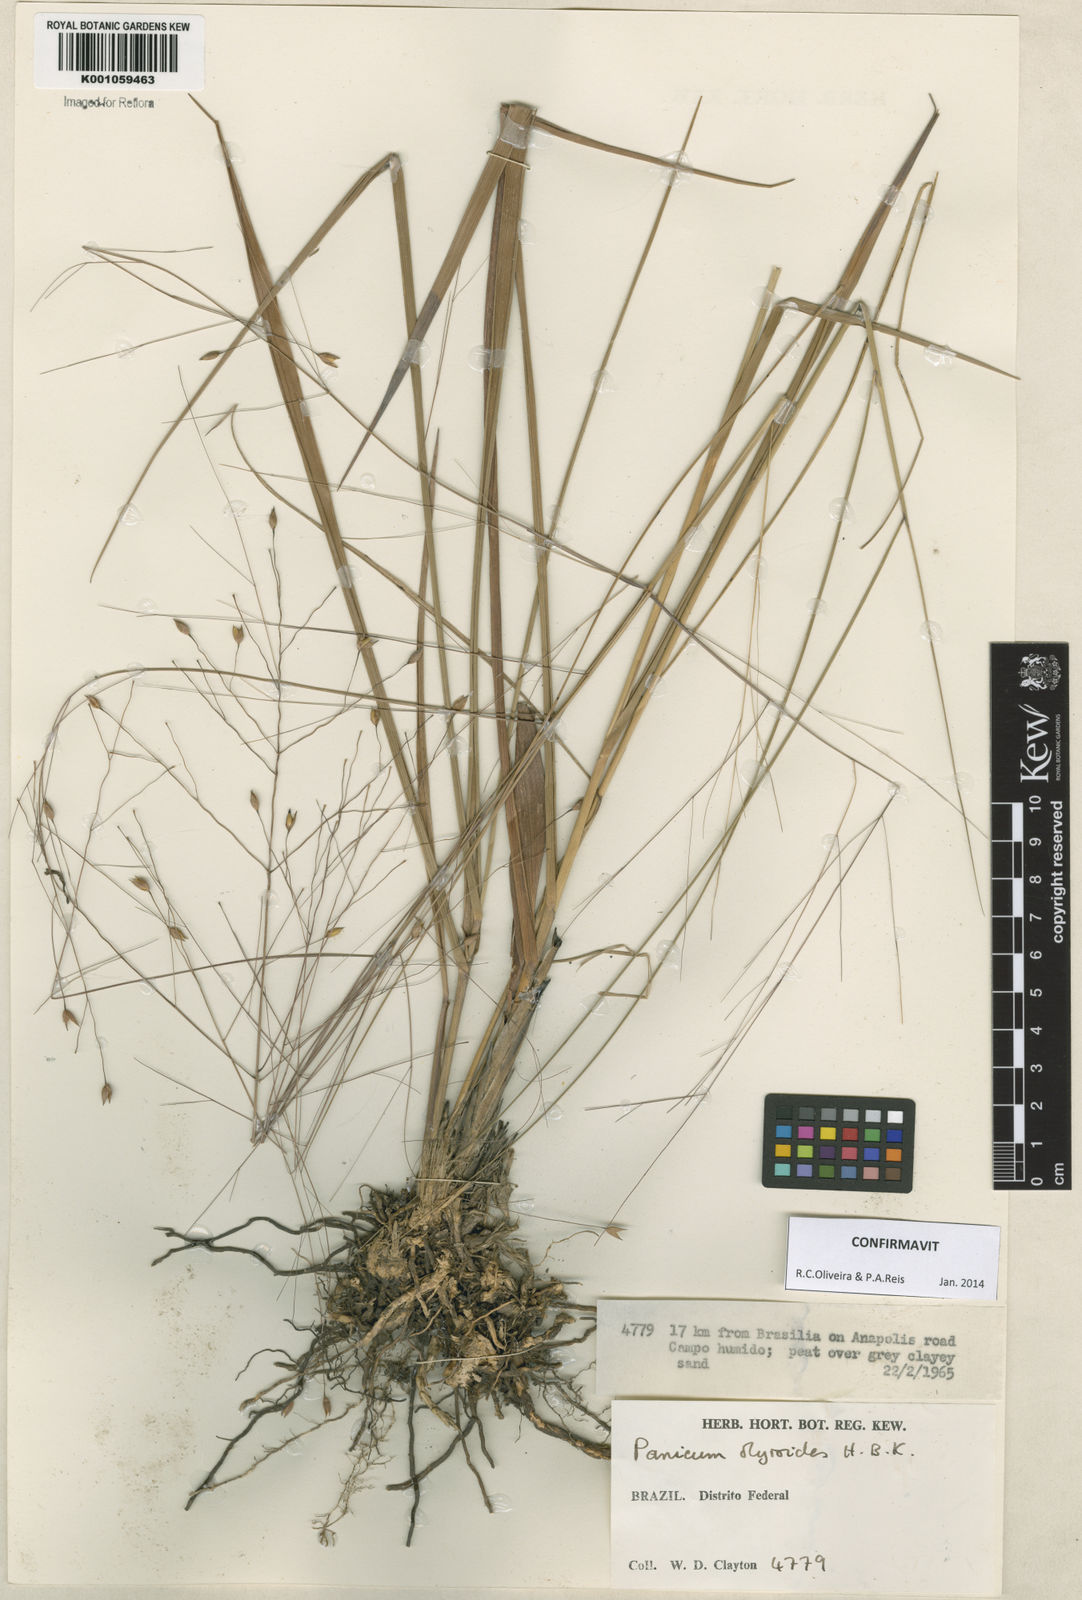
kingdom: Plantae
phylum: Tracheophyta
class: Liliopsida
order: Poales
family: Poaceae
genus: Panicum
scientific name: Panicum olyroides
